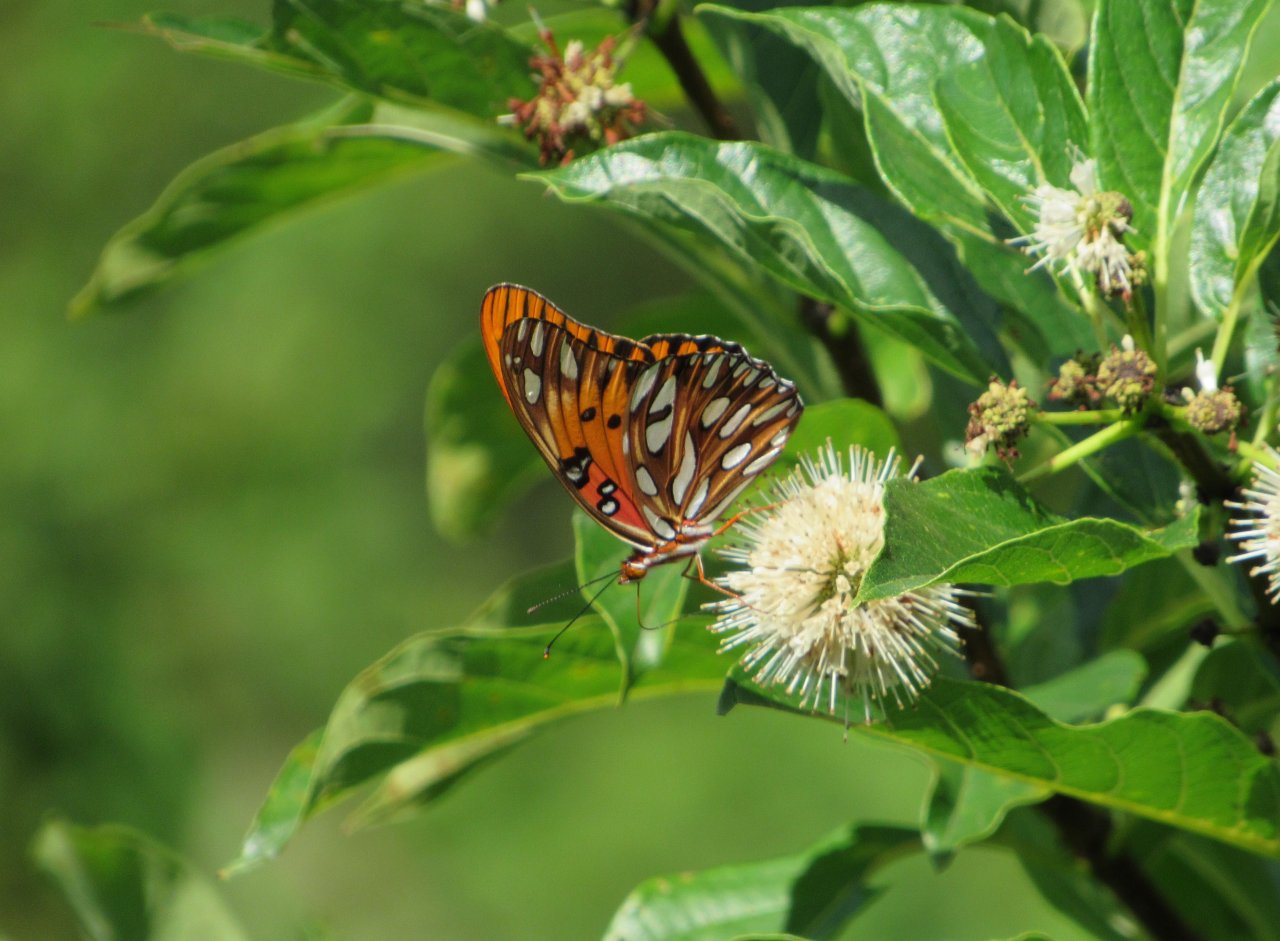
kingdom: Animalia
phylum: Arthropoda
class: Insecta
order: Lepidoptera
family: Nymphalidae
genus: Dione
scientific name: Dione vanillae
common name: Gulf Fritillary
